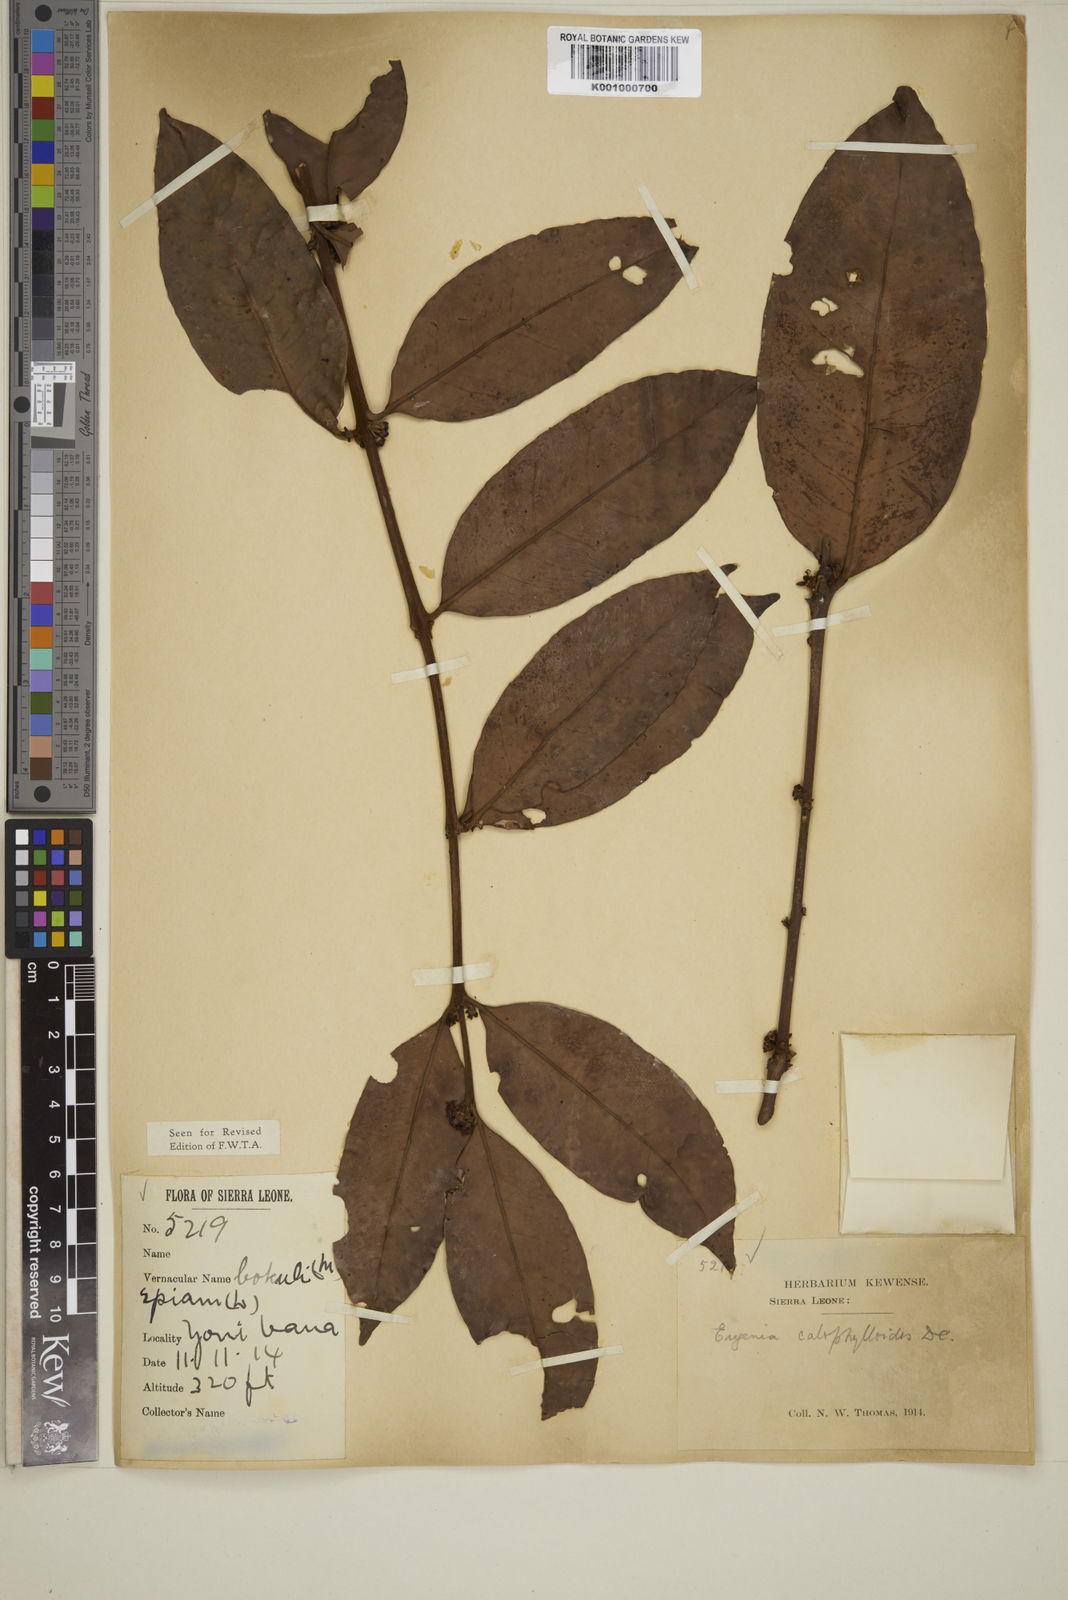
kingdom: Plantae
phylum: Tracheophyta
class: Magnoliopsida
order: Myrtales
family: Myrtaceae
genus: Eugenia
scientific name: Eugenia calophylloides
